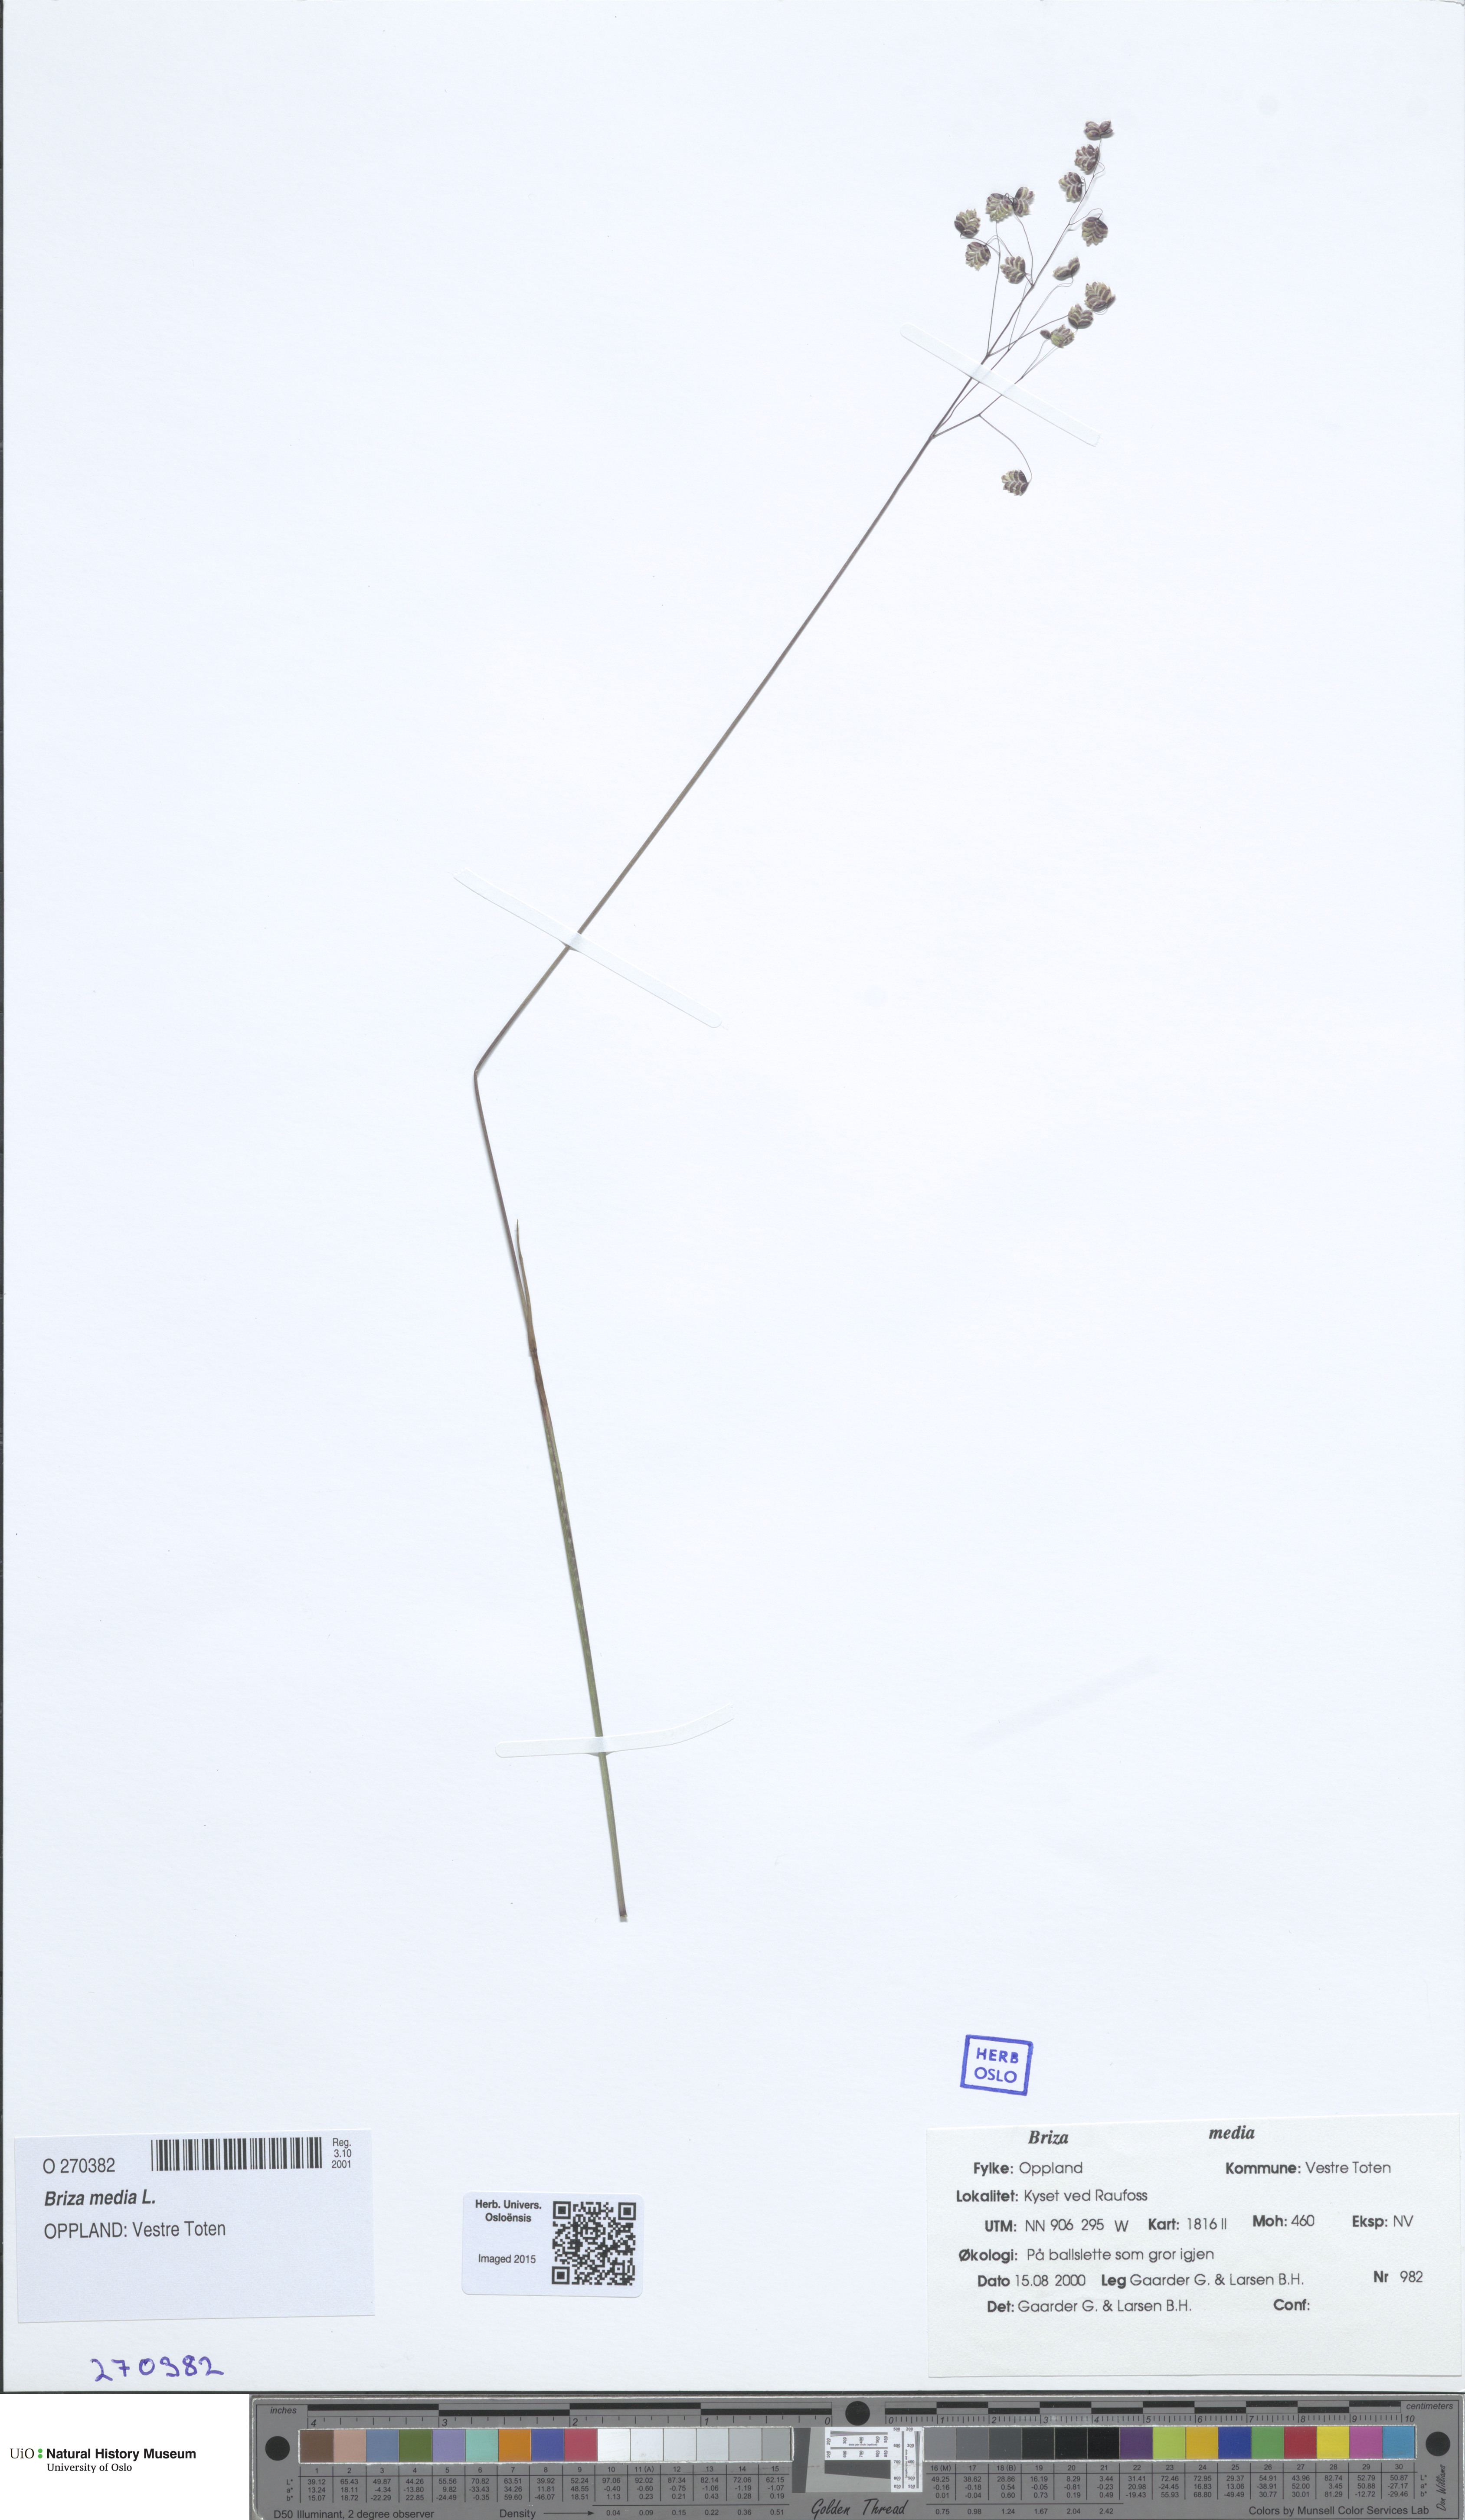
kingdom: Plantae
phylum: Tracheophyta
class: Liliopsida
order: Poales
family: Poaceae
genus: Briza
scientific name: Briza media
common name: Quaking grass
